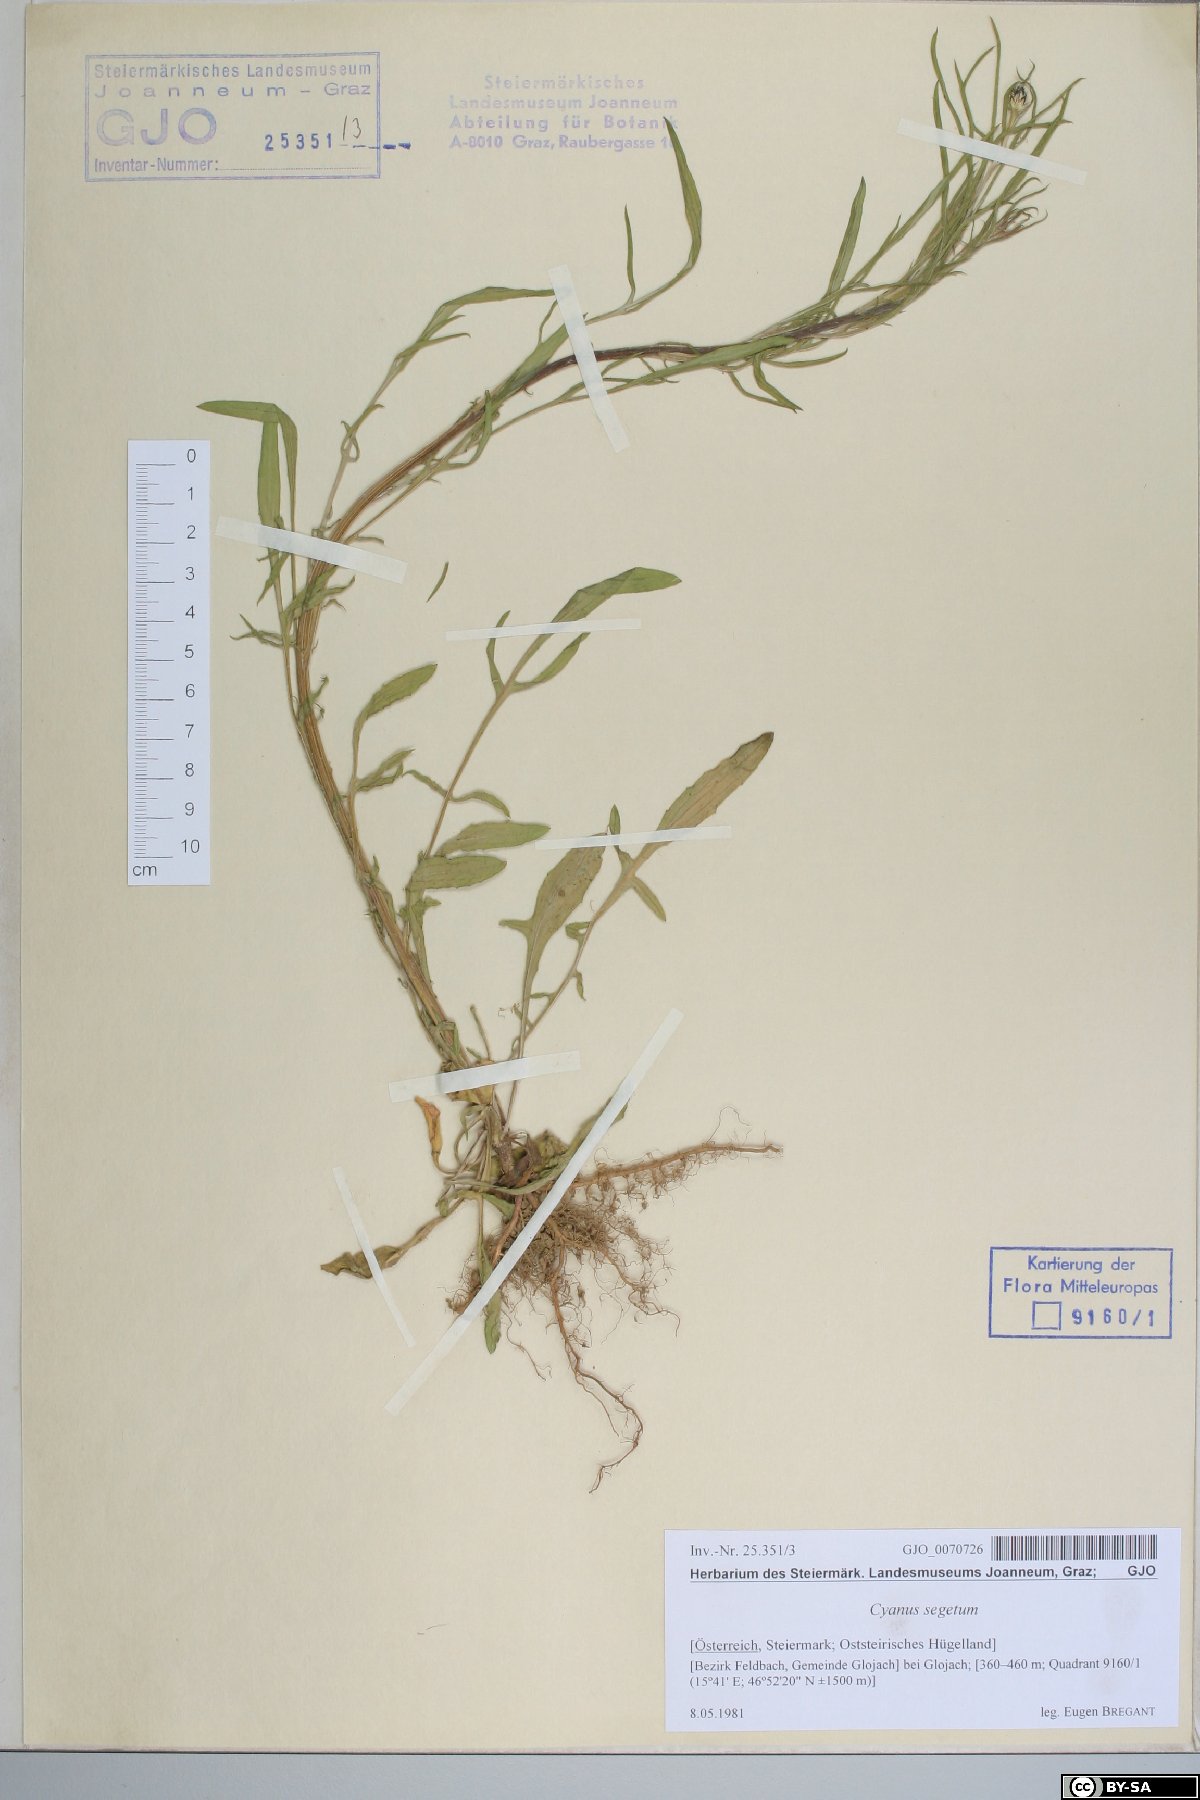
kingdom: Plantae
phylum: Tracheophyta
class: Magnoliopsida
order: Asterales
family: Asteraceae
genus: Centaurea
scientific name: Centaurea cyanus
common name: Cornflower
